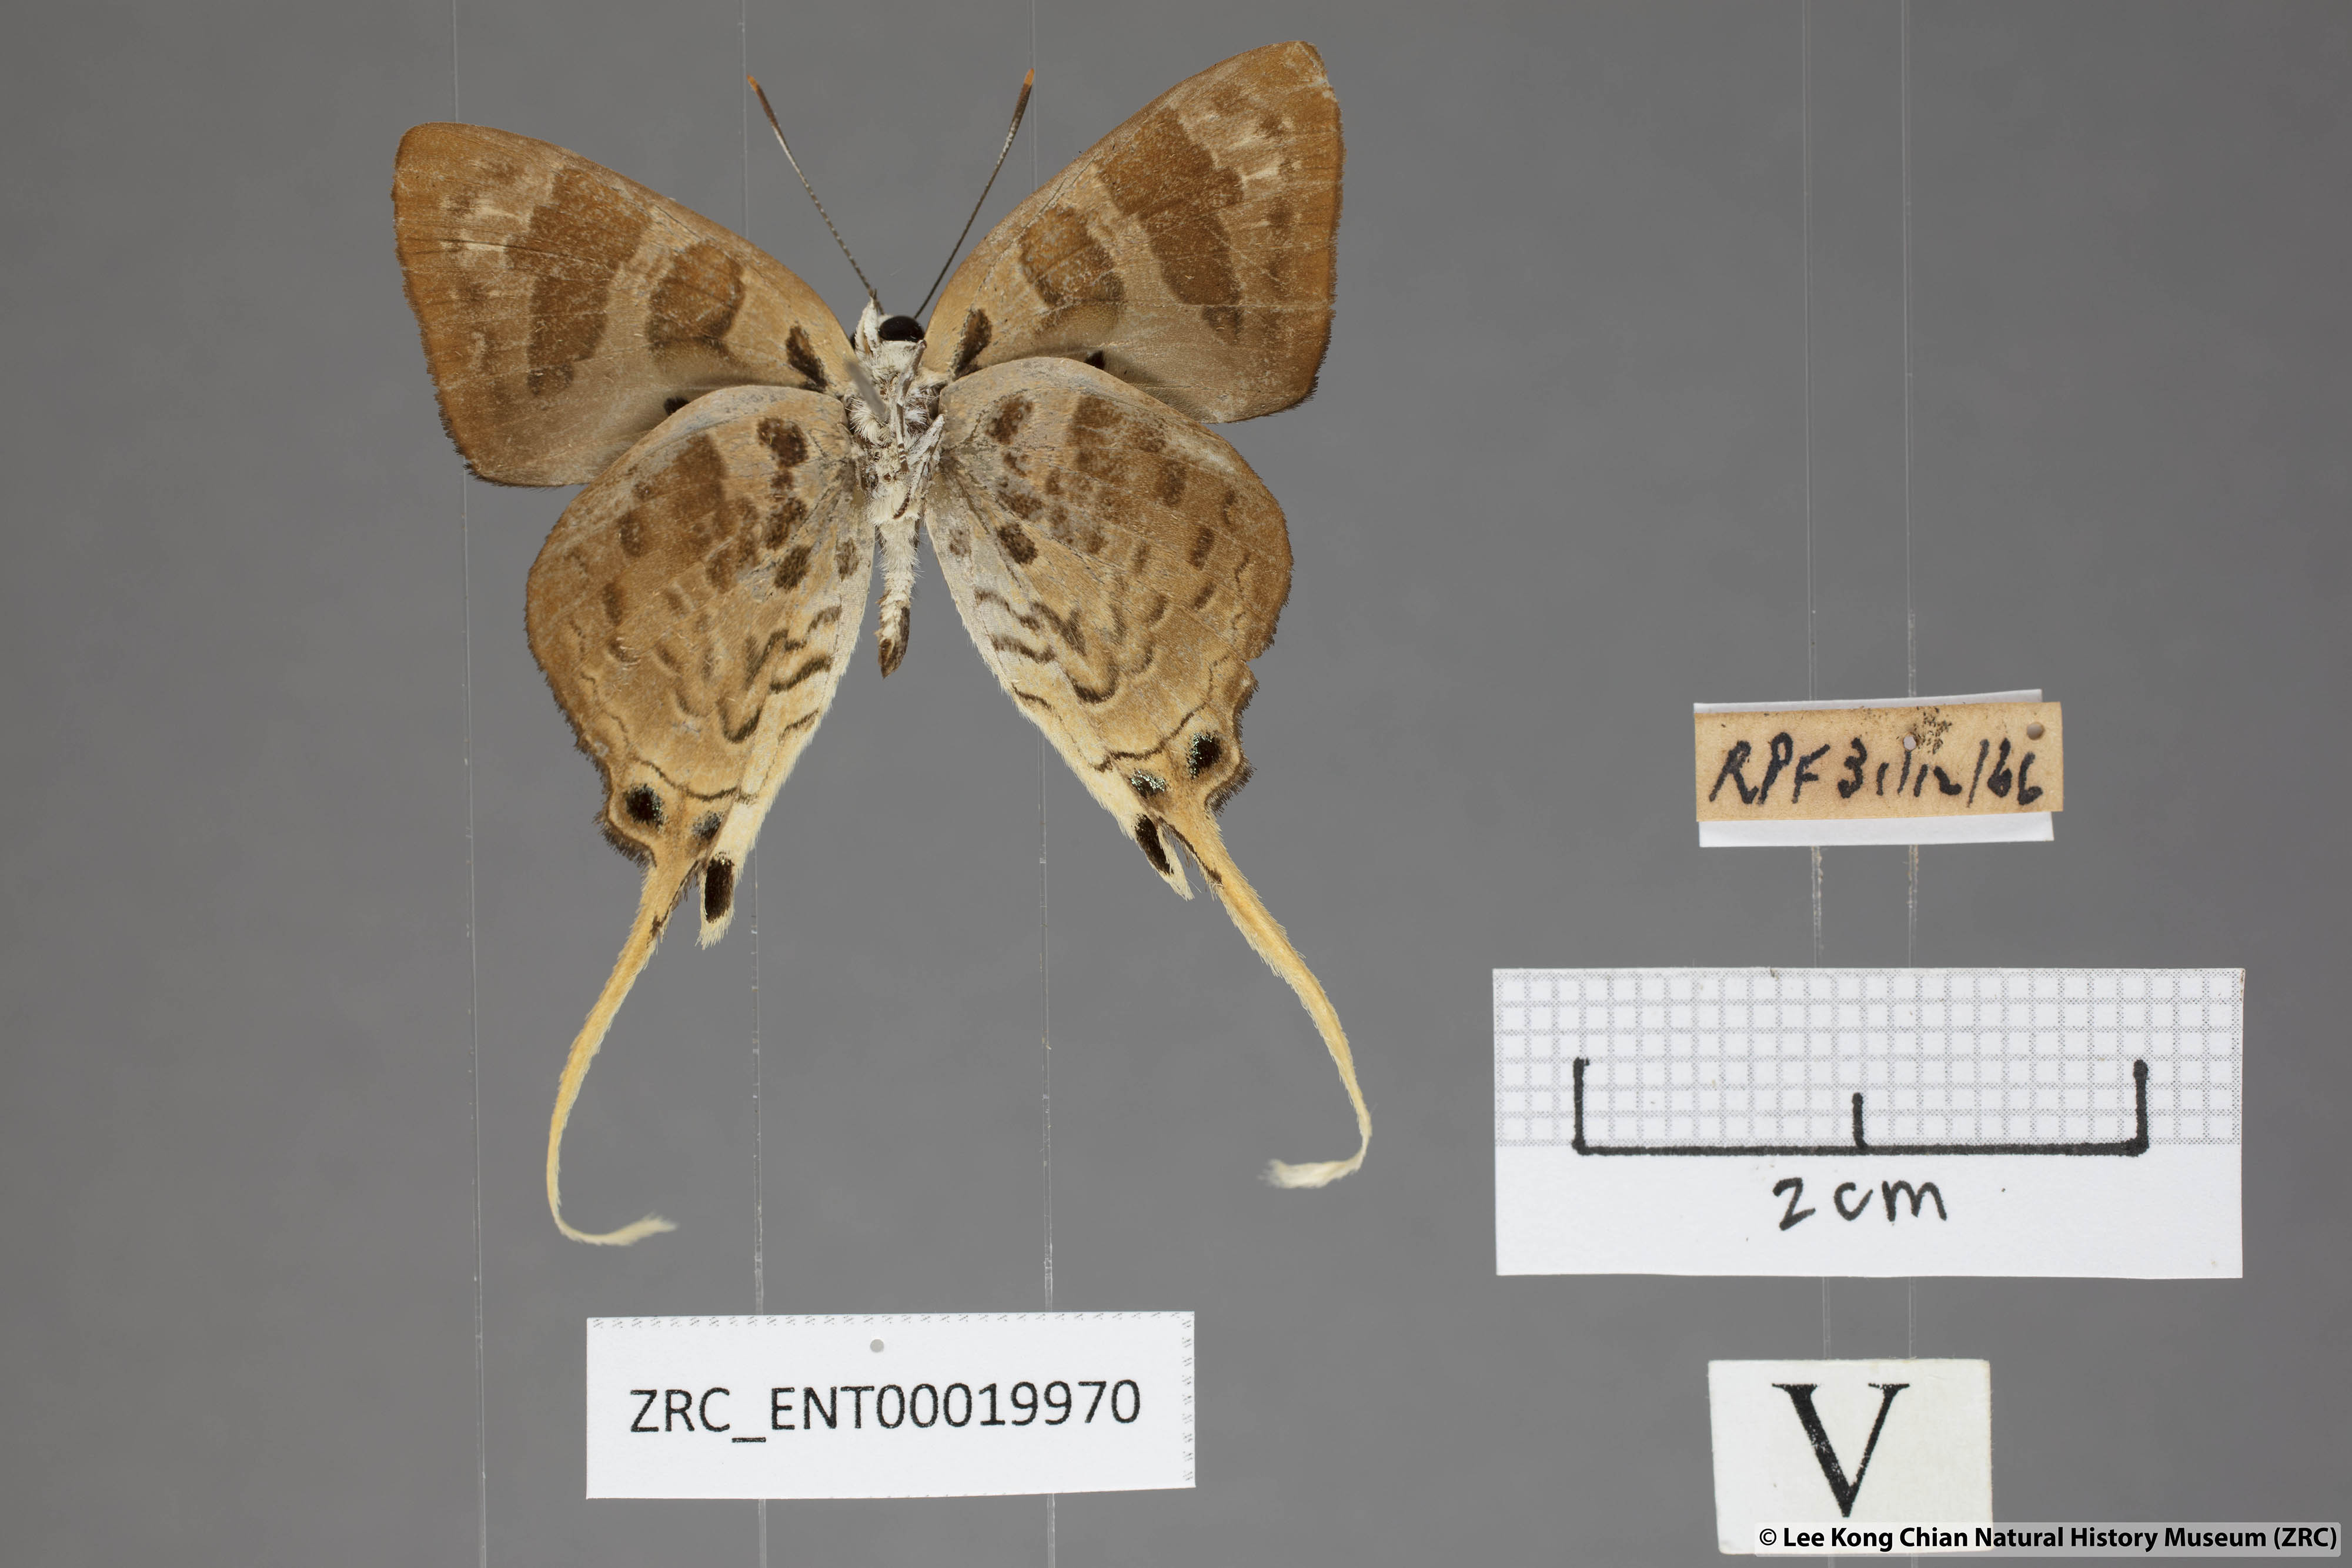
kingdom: Animalia
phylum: Arthropoda
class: Insecta
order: Lepidoptera
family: Lycaenidae
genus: Bindahara
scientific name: Bindahara phocides
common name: Sword-tailed flash
